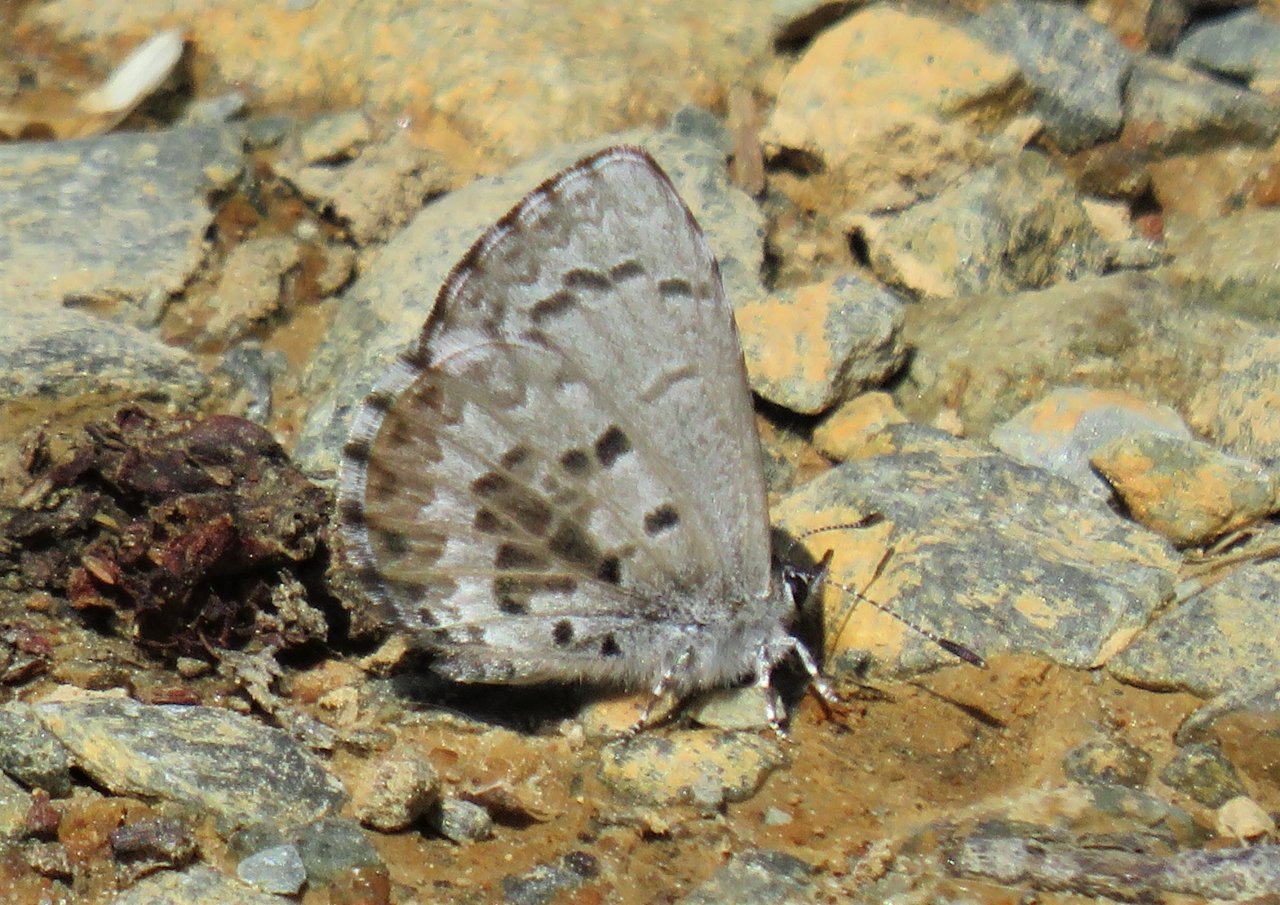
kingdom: Animalia
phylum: Arthropoda
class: Insecta
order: Lepidoptera
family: Lycaenidae
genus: Celastrina
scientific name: Celastrina lucia
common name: Northern Spring Azure
